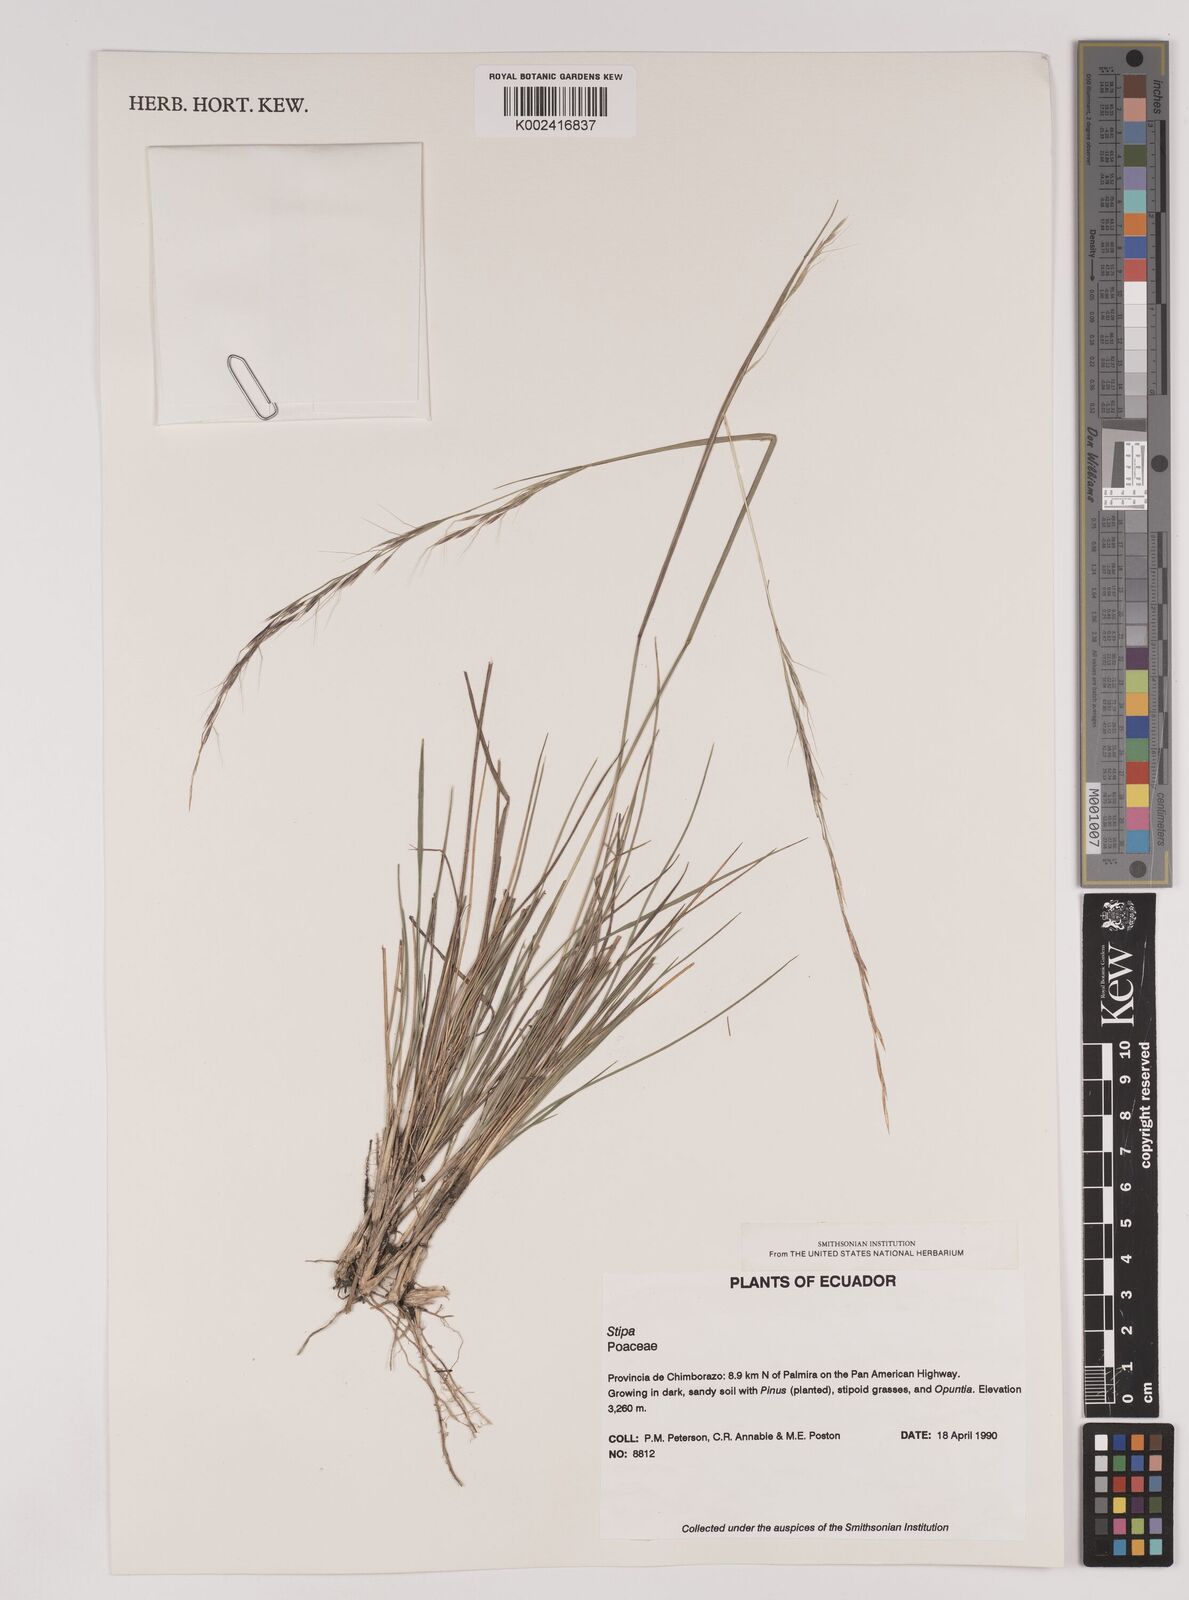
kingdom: Plantae
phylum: Tracheophyta
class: Liliopsida
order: Poales
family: Poaceae
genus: Stipa
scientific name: Stipa
